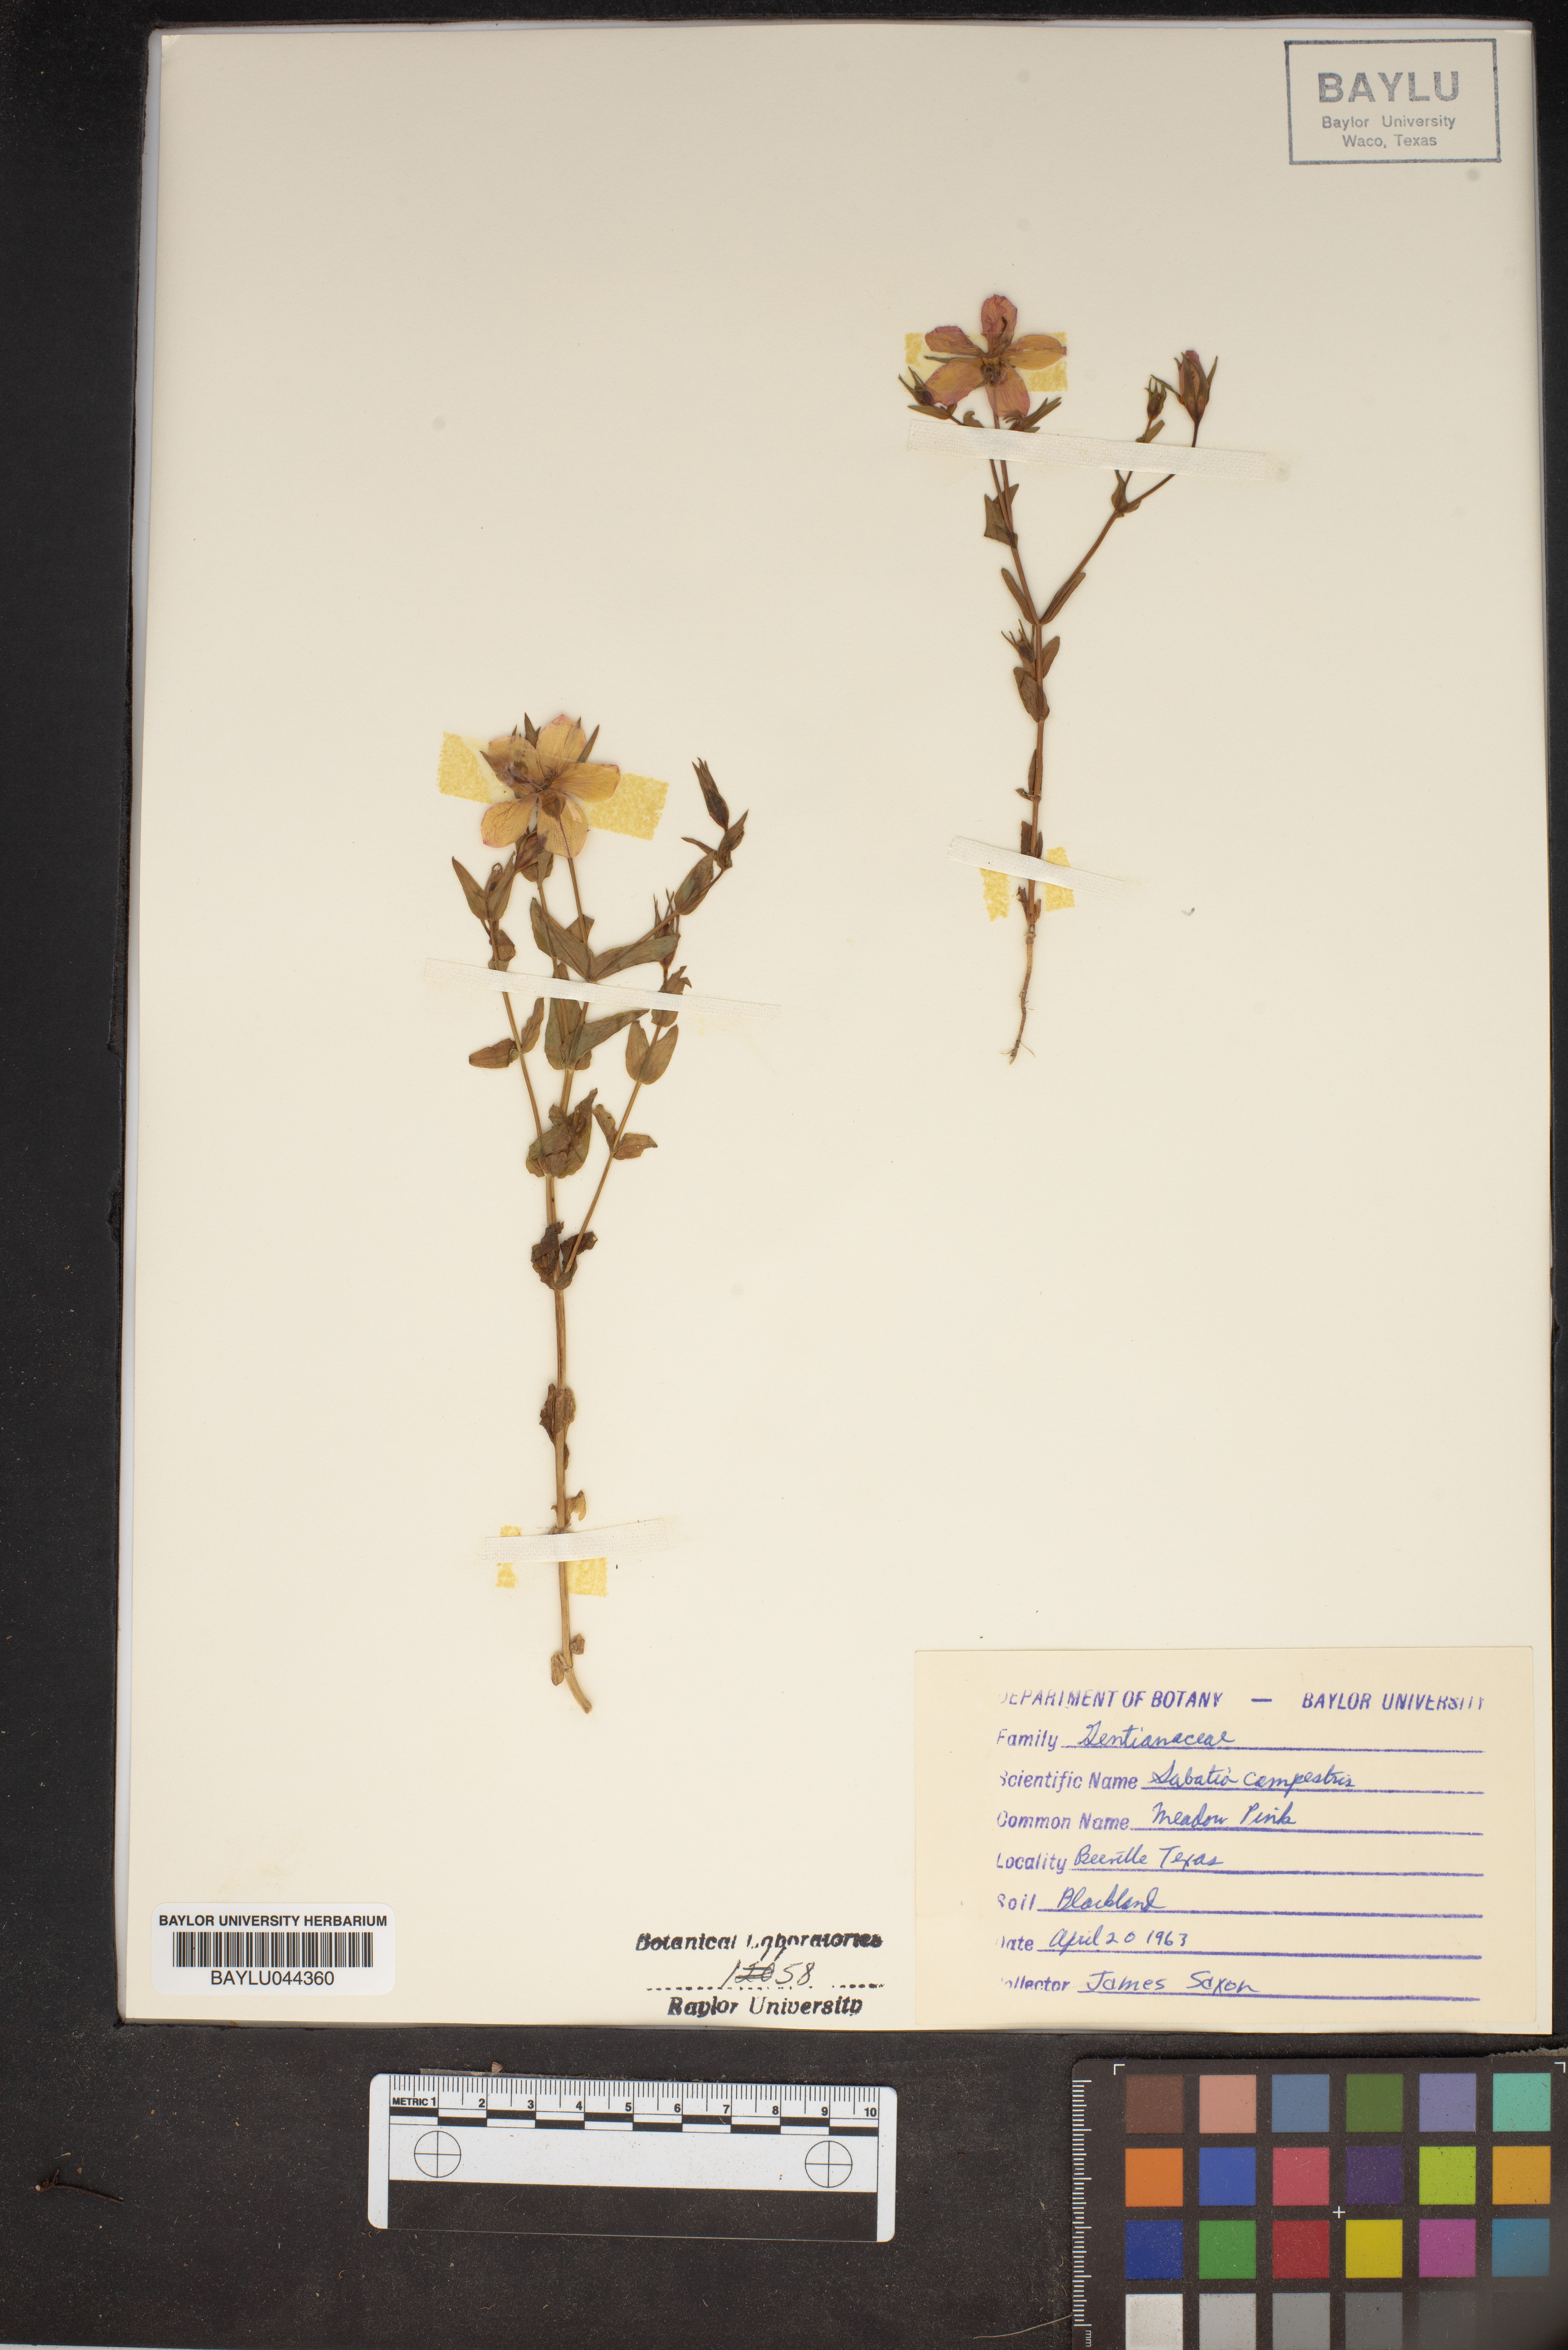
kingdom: Plantae
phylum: Tracheophyta
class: Magnoliopsida
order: Gentianales
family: Gentianaceae
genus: Sabatia
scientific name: Sabatia campestris
